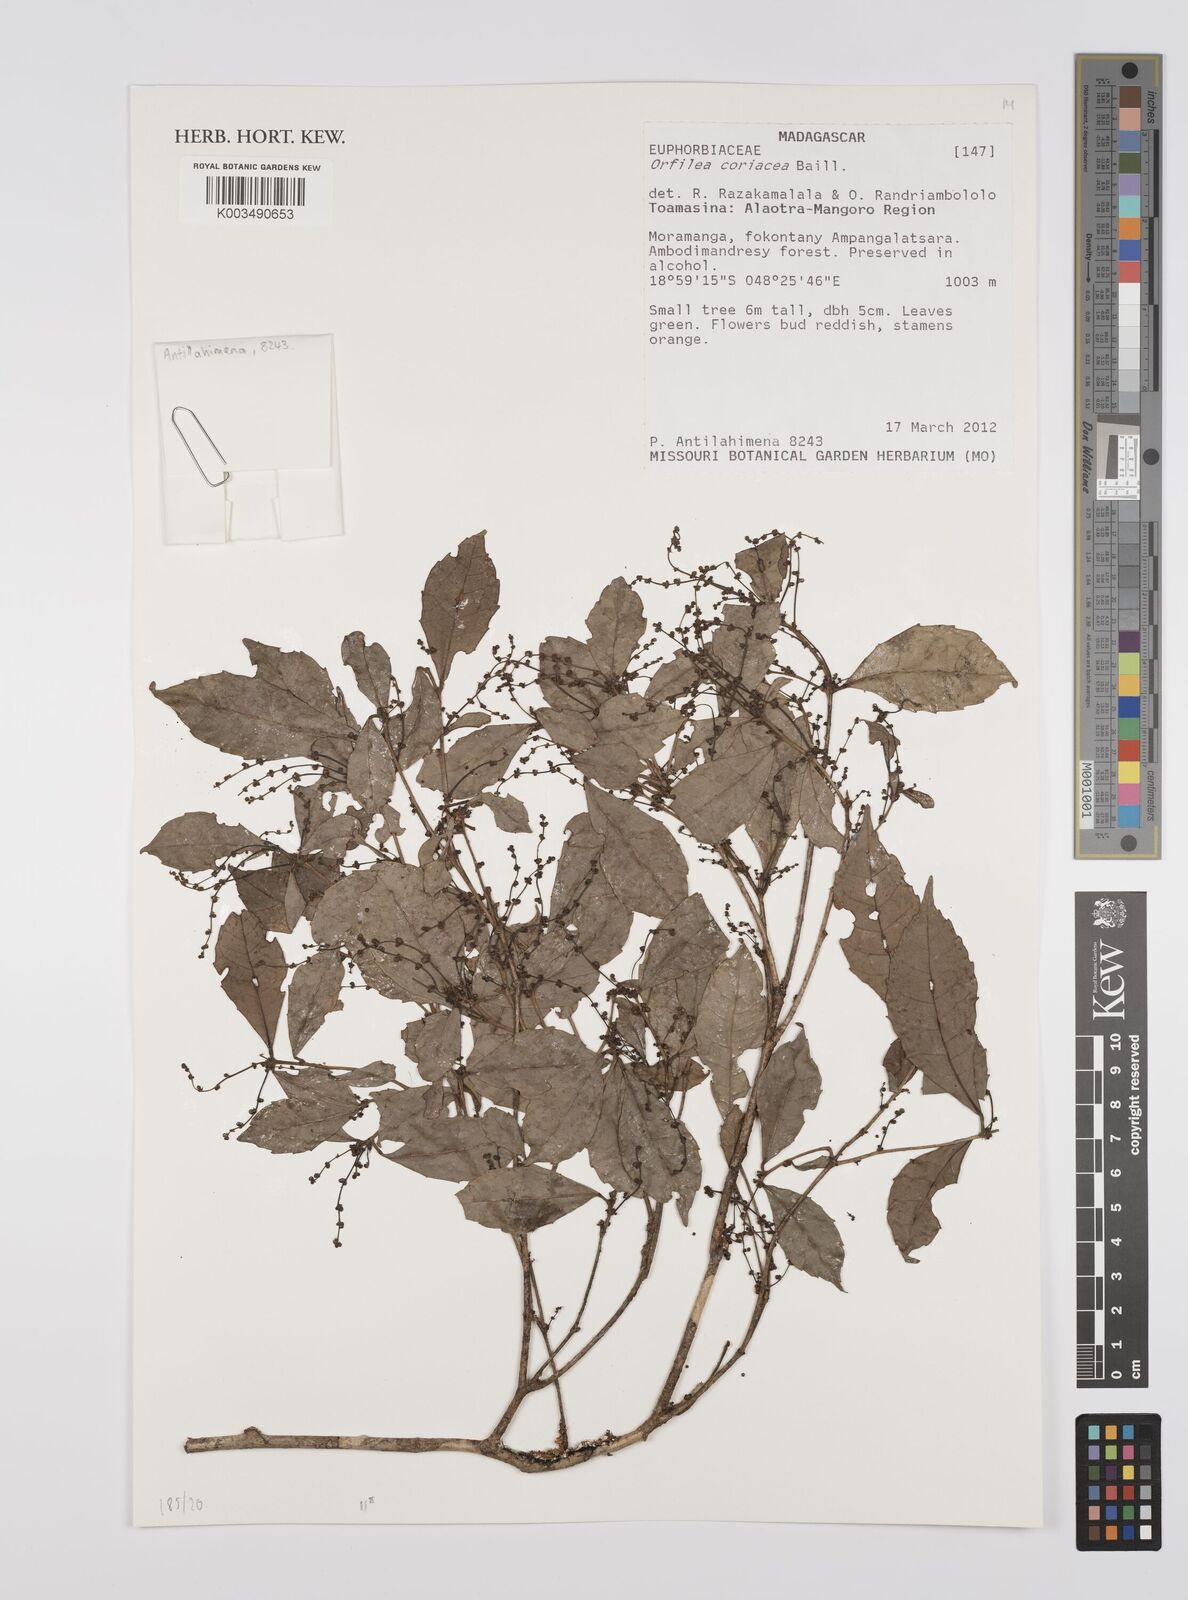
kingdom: Plantae
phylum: Tracheophyta
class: Magnoliopsida
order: Malpighiales
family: Euphorbiaceae
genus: Orfilea
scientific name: Orfilea coriacea
